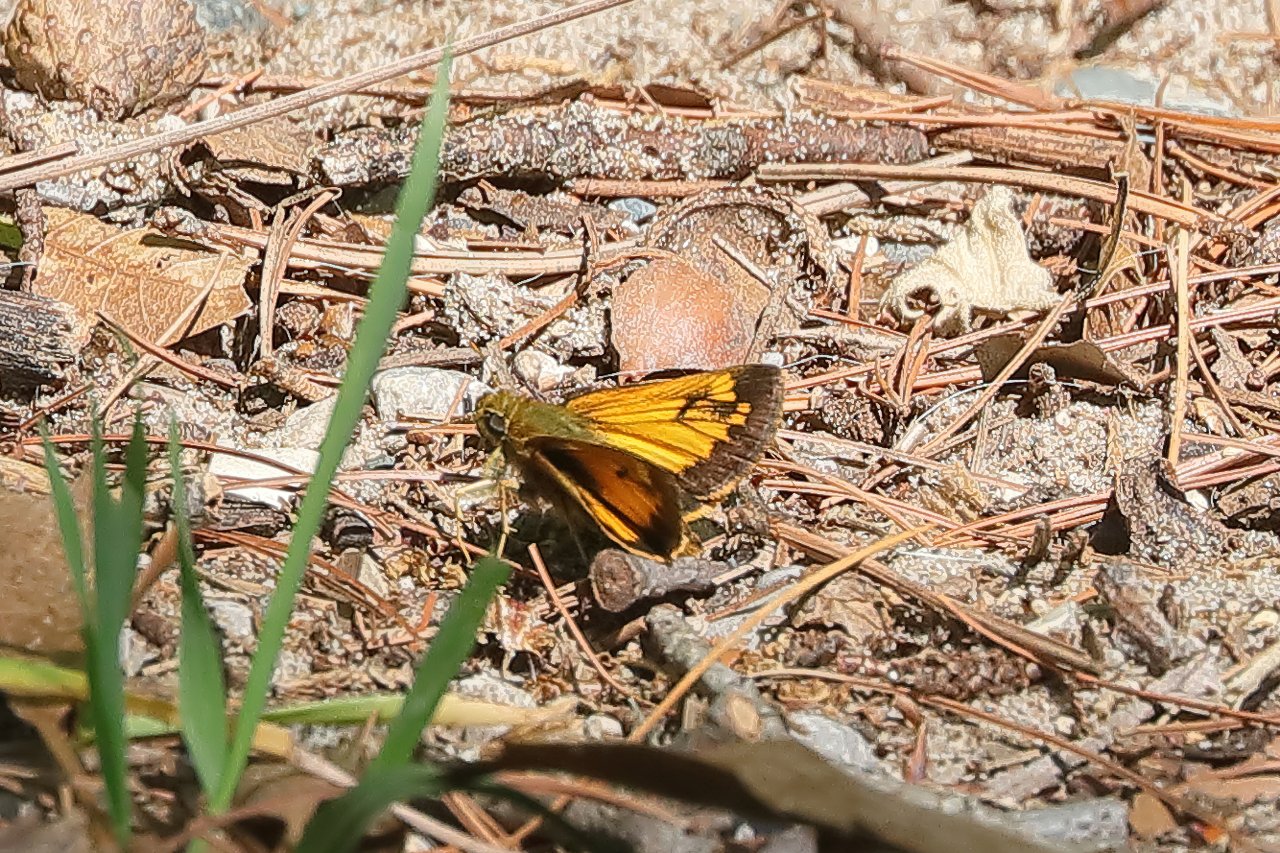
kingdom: Animalia
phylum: Arthropoda
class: Insecta
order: Lepidoptera
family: Hesperiidae
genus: Lon
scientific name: Lon hobomok
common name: Hobomok Skipper
